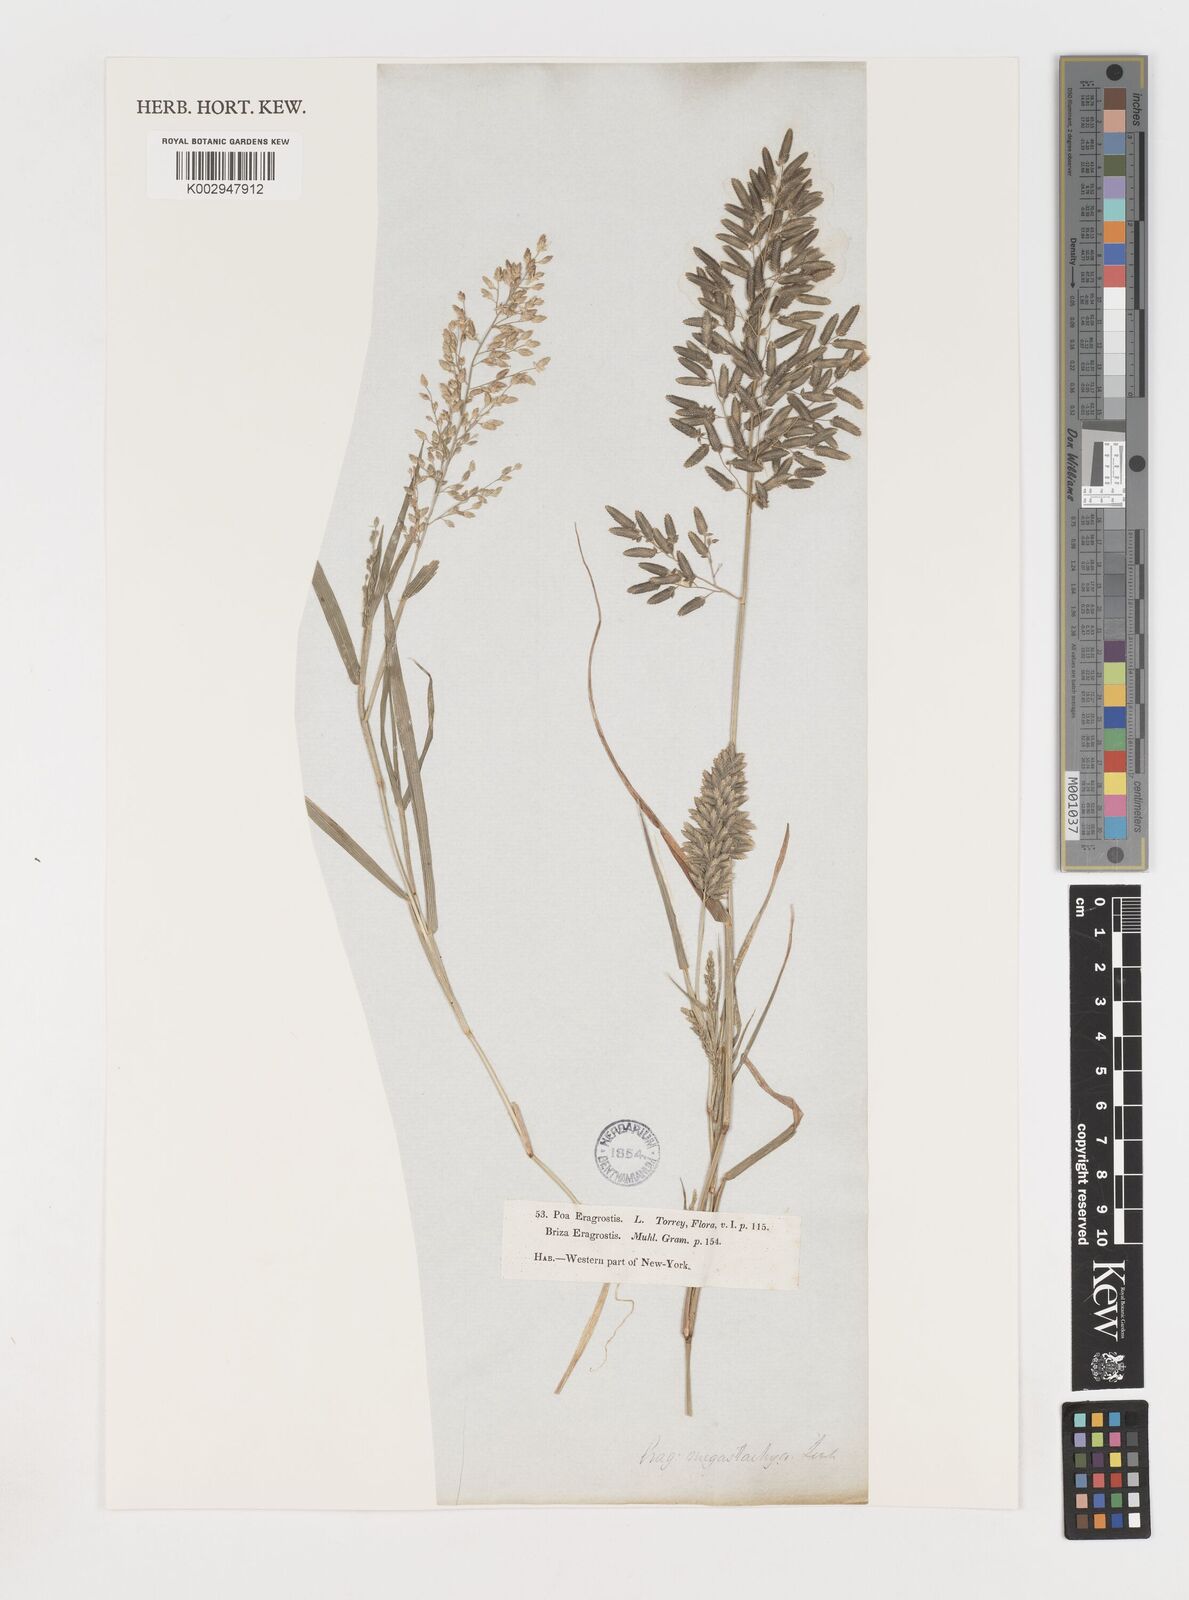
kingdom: Plantae
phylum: Tracheophyta
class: Liliopsida
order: Poales
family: Poaceae
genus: Eragrostis
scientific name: Eragrostis
